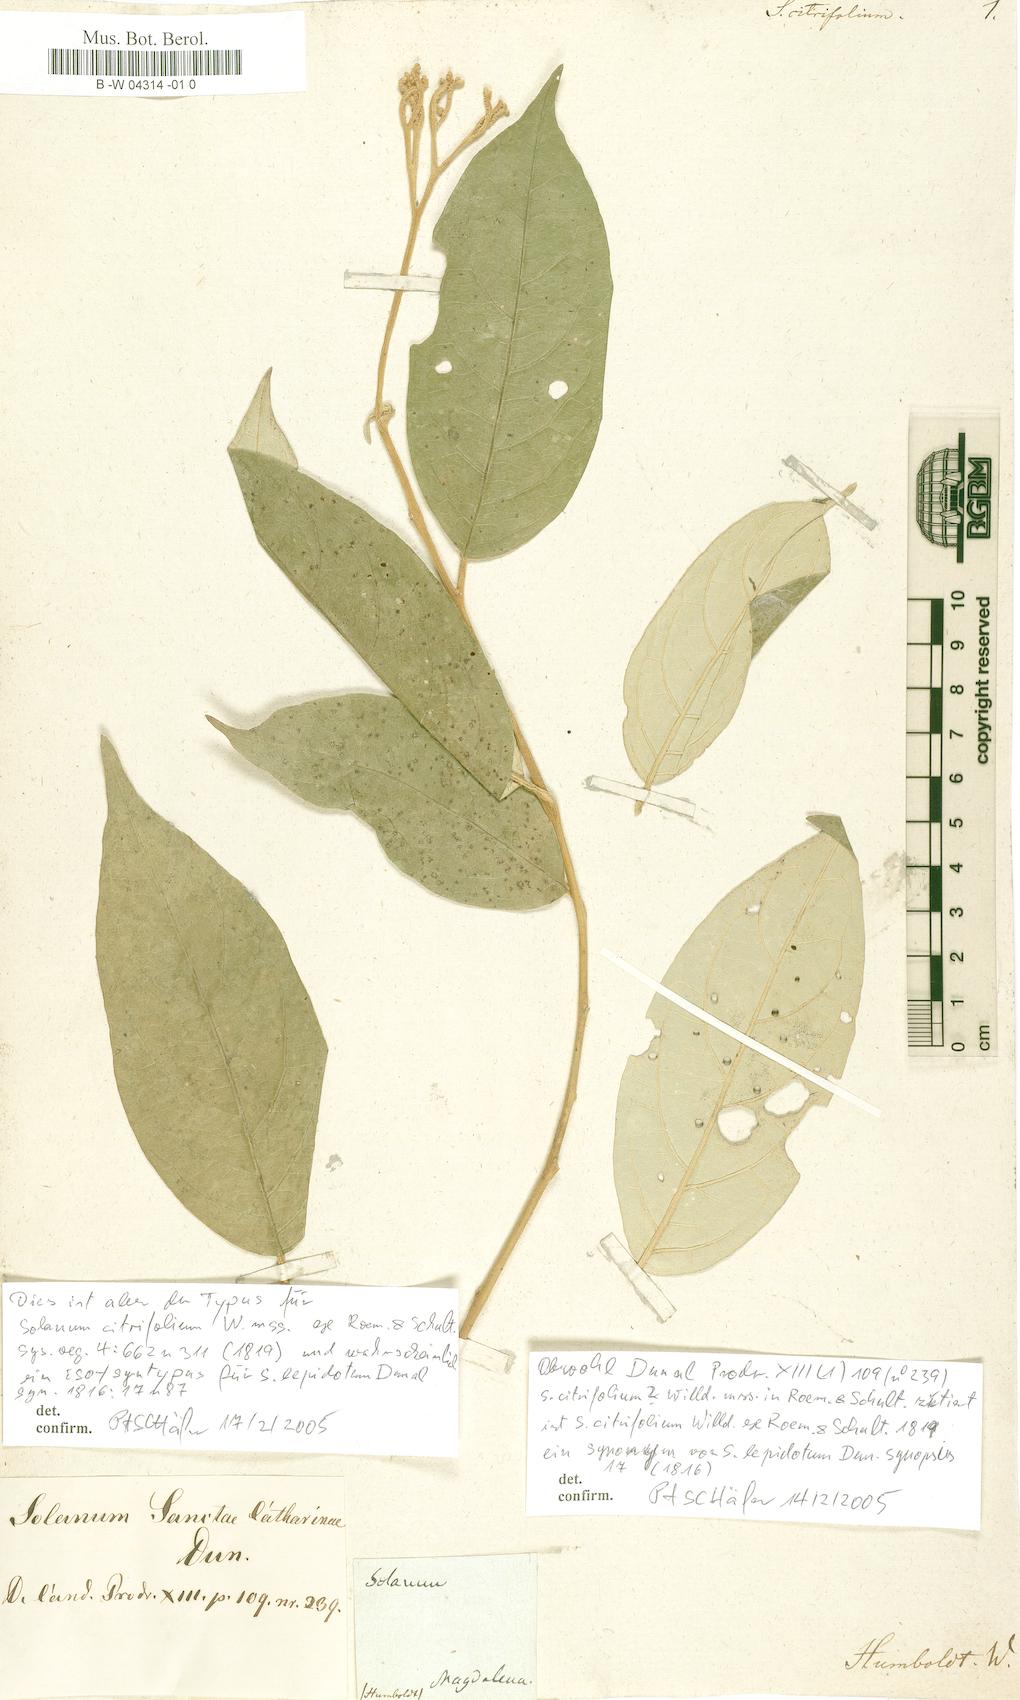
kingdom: Plantae
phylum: Tracheophyta
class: Magnoliopsida
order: Solanales
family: Solanaceae
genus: Solanum
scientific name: Solanum argenteum
